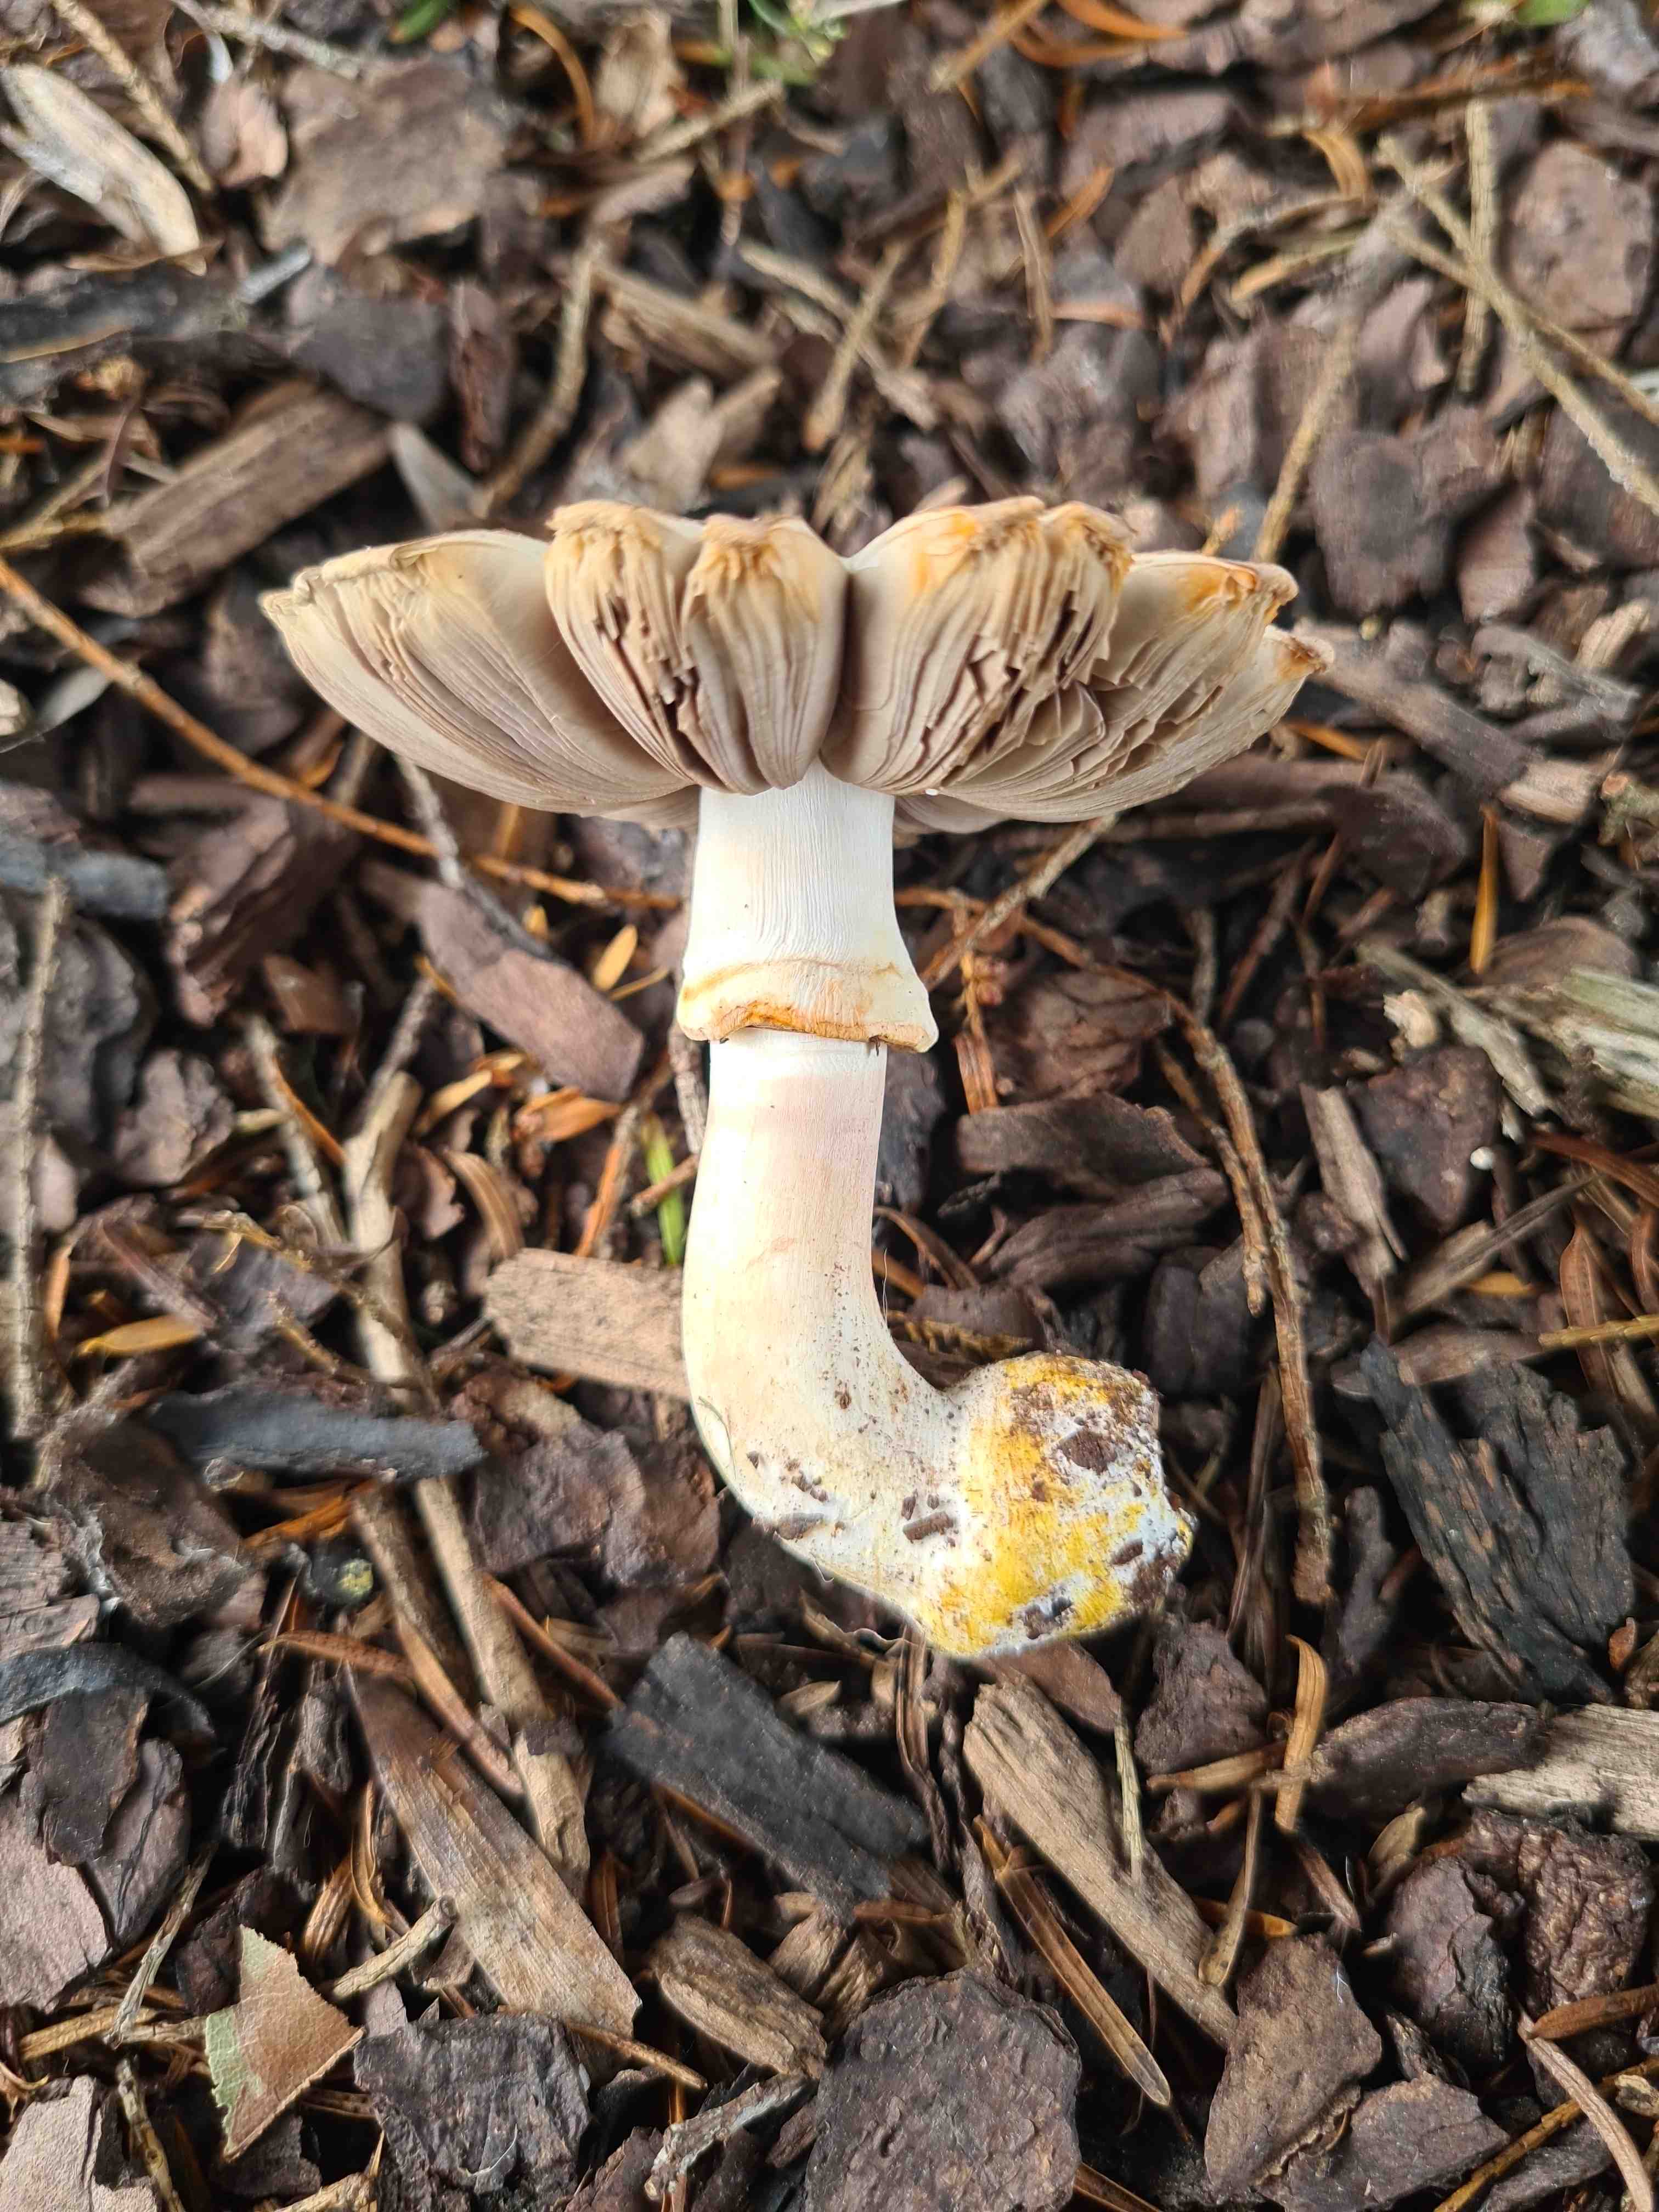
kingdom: Fungi
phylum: Basidiomycota
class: Agaricomycetes
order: Agaricales
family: Agaricaceae
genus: Agaricus
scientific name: Agaricus xanthodermus
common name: karbol-champignon
